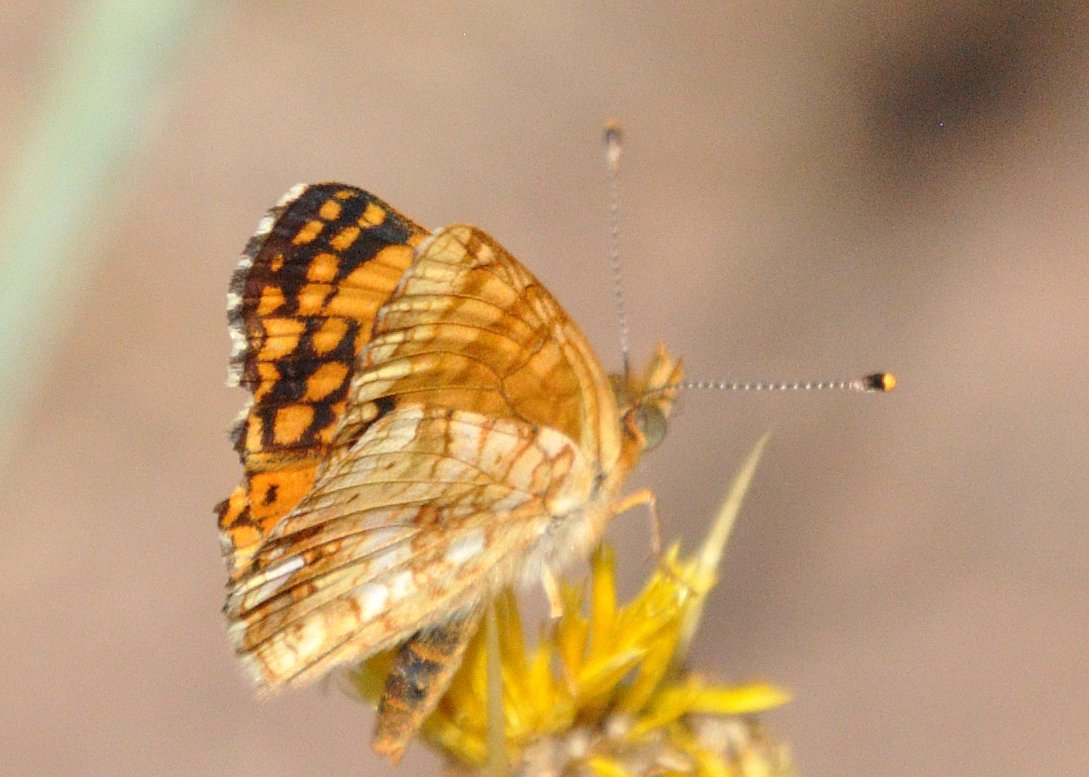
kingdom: Animalia
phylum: Arthropoda
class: Insecta
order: Lepidoptera
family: Nymphalidae
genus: Eresia
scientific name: Eresia aveyrona
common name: Mylitta Crescent
